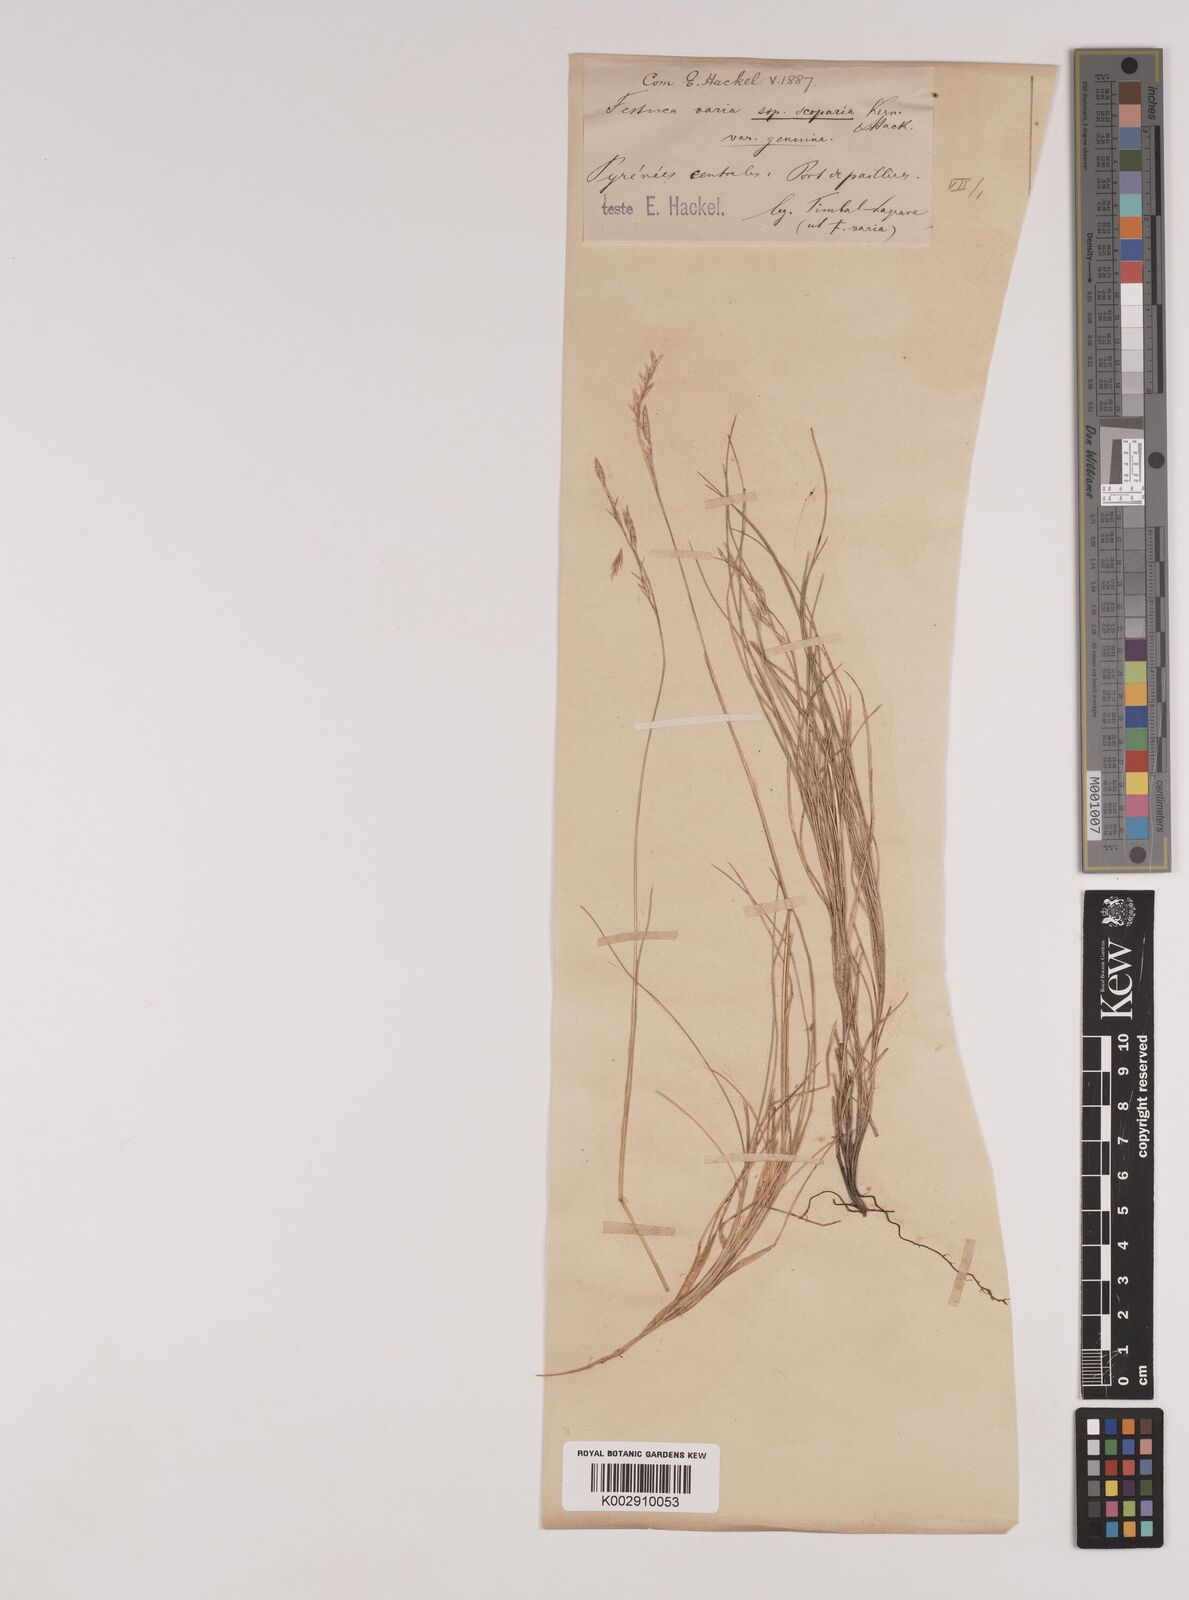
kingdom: Plantae
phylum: Tracheophyta
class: Liliopsida
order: Poales
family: Poaceae
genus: Festuca
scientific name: Festuca gautieri
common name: Spiky fescue
